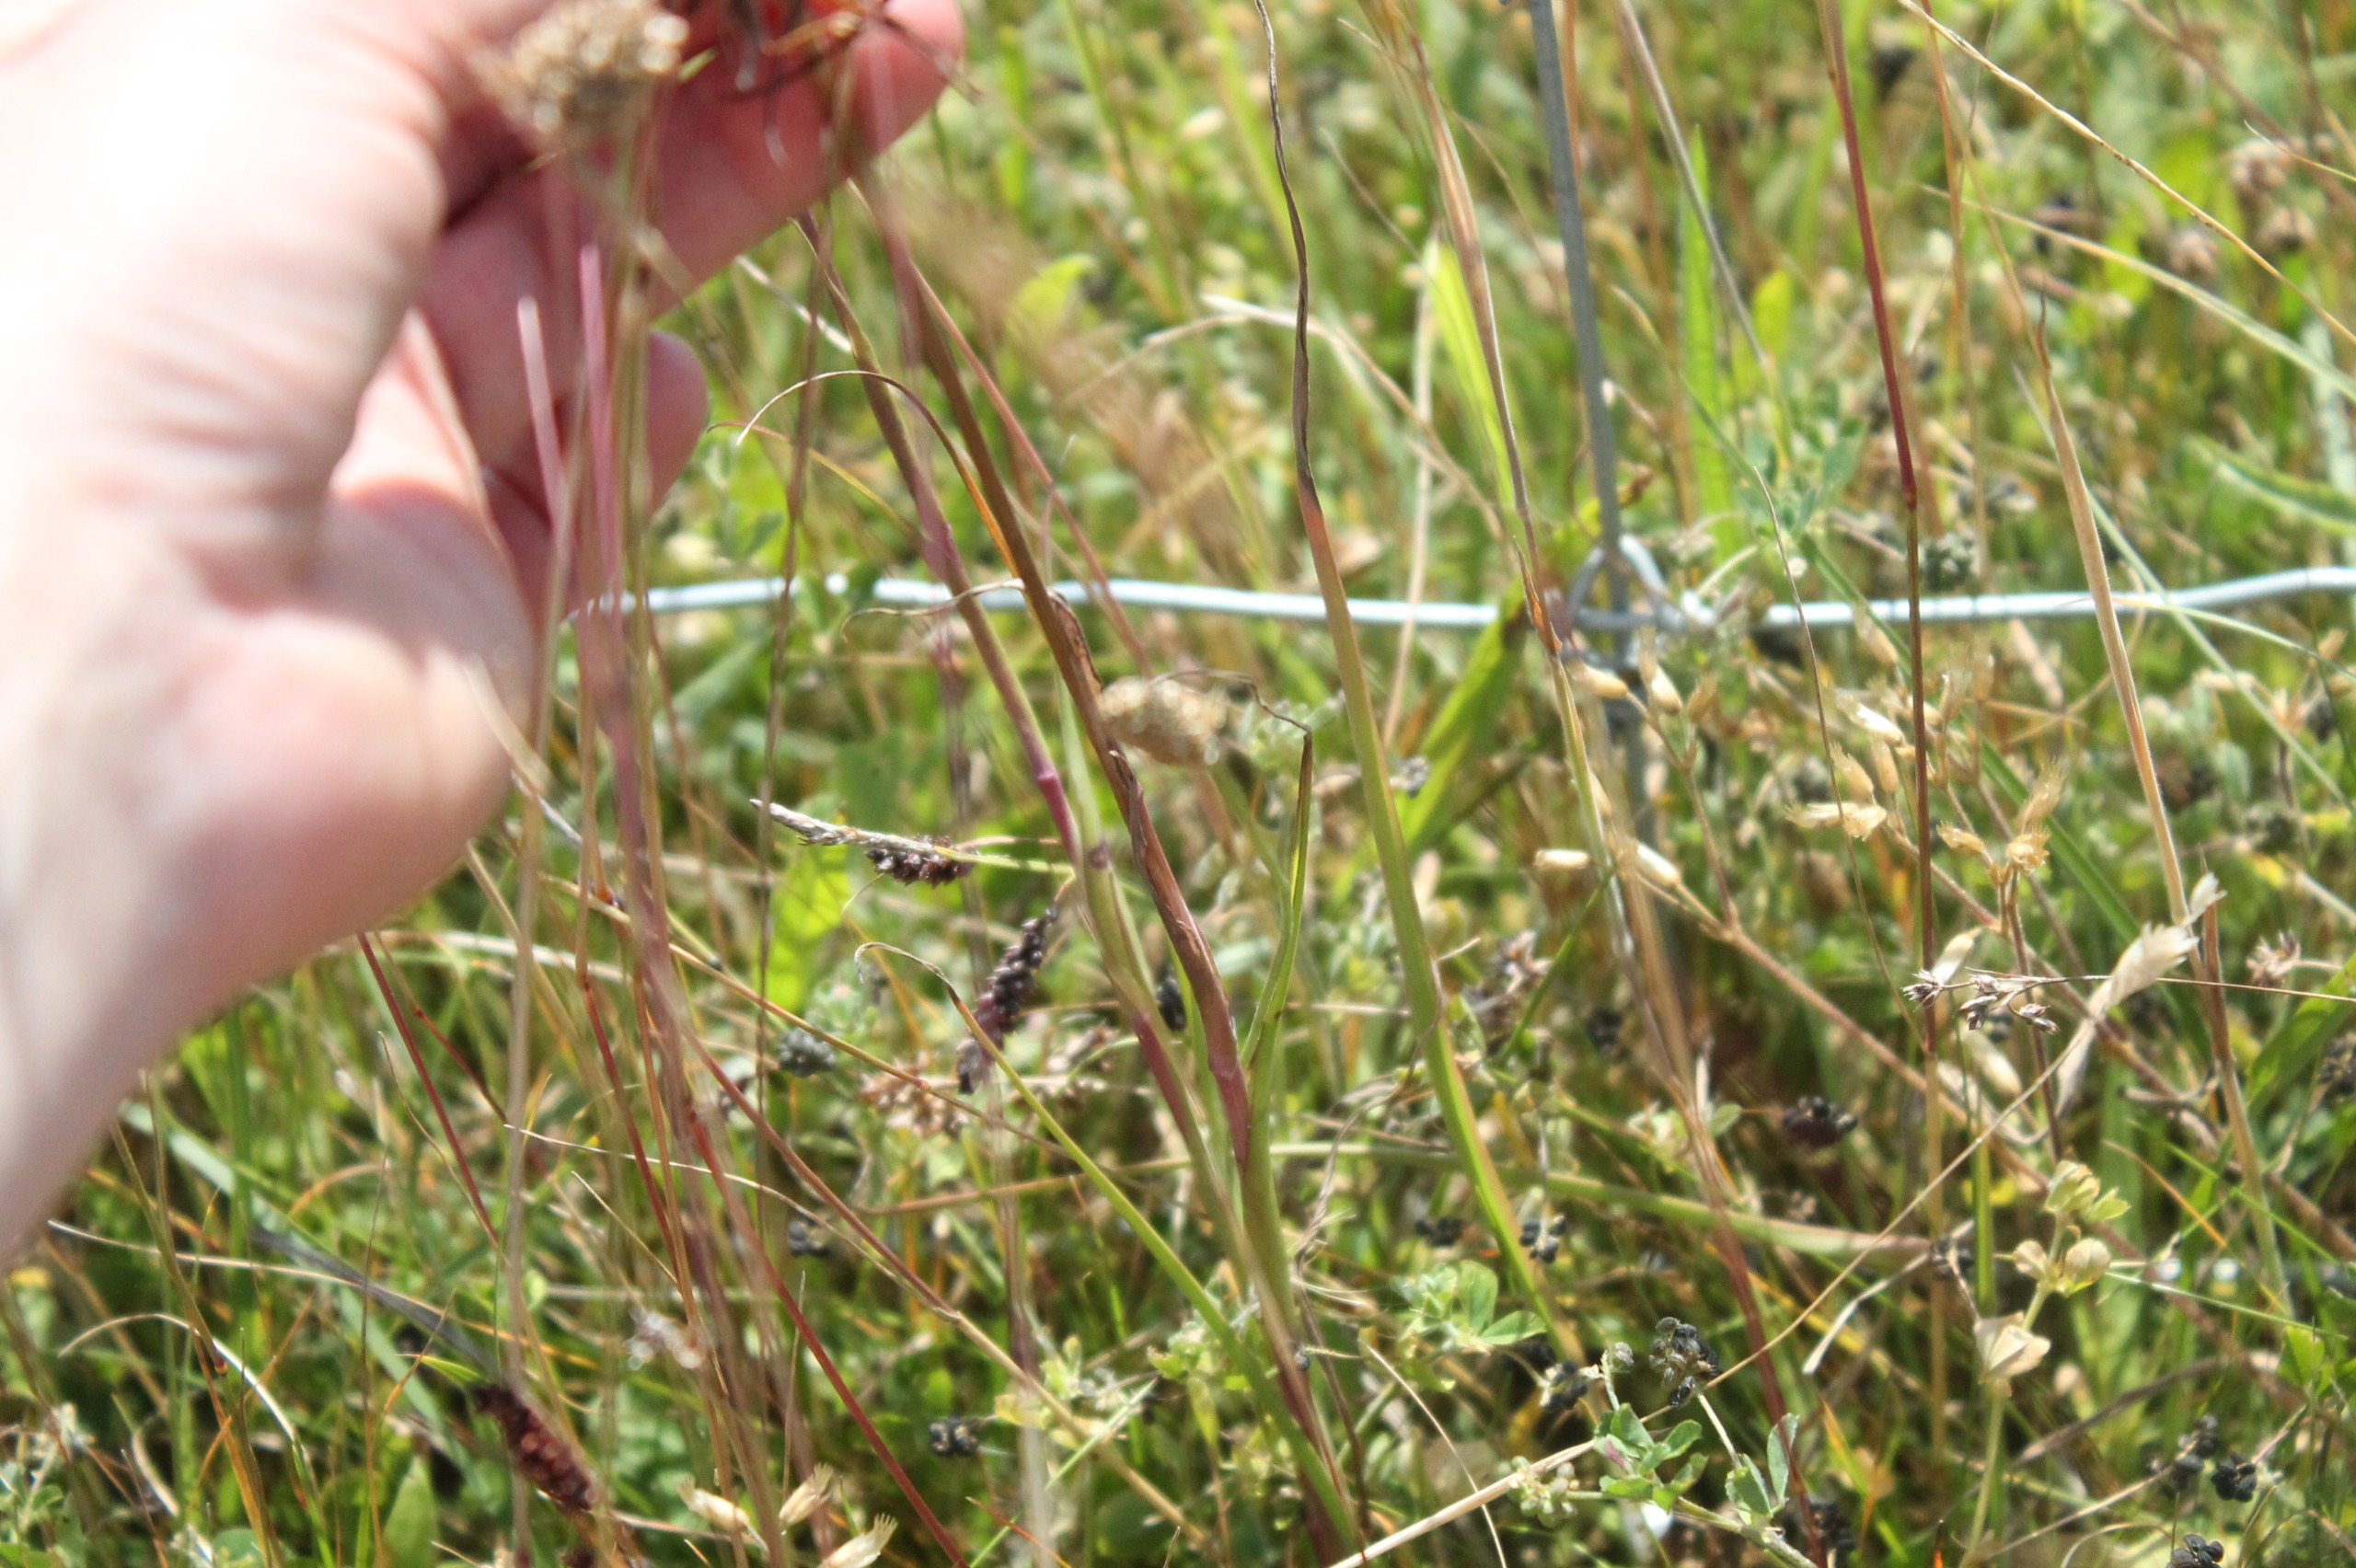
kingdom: Plantae
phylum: Tracheophyta
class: Magnoliopsida
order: Asterales
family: Asteraceae
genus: Tragopogon
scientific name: Tragopogon pratensis
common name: Gedeskæg
